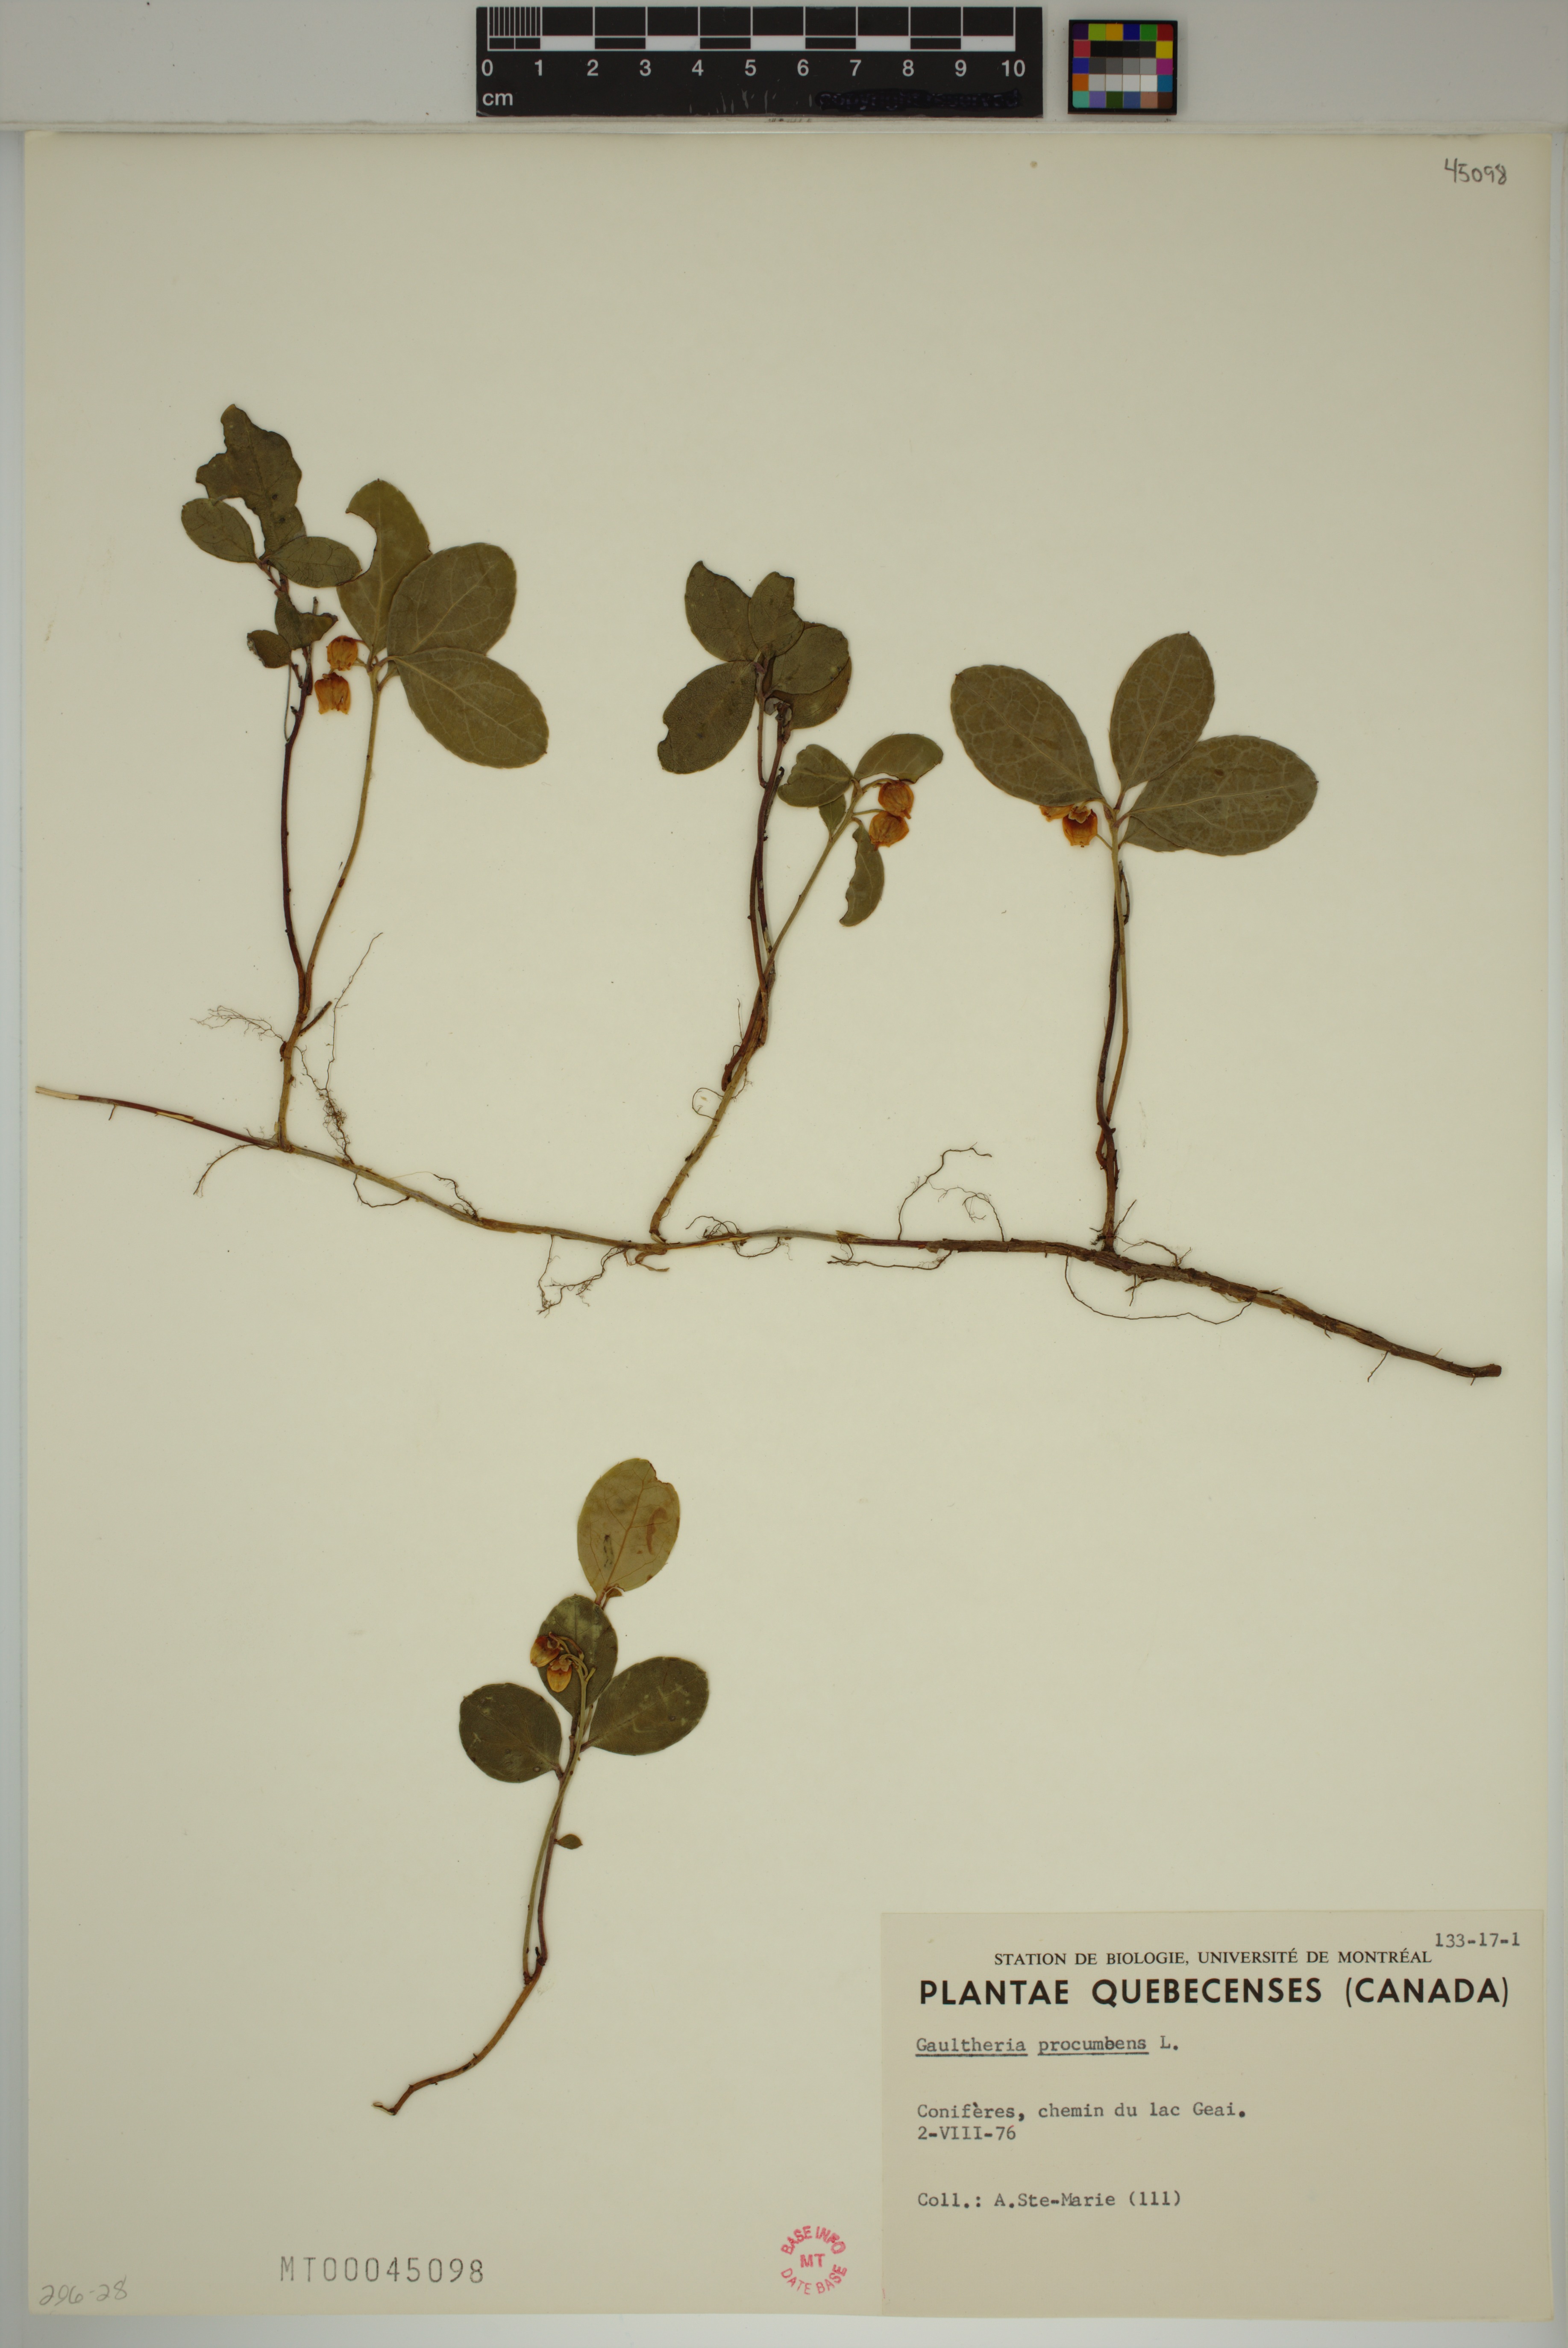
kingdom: Plantae
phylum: Tracheophyta
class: Magnoliopsida
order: Ericales
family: Ericaceae
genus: Gaultheria
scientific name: Gaultheria procumbens
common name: Checkerberry
